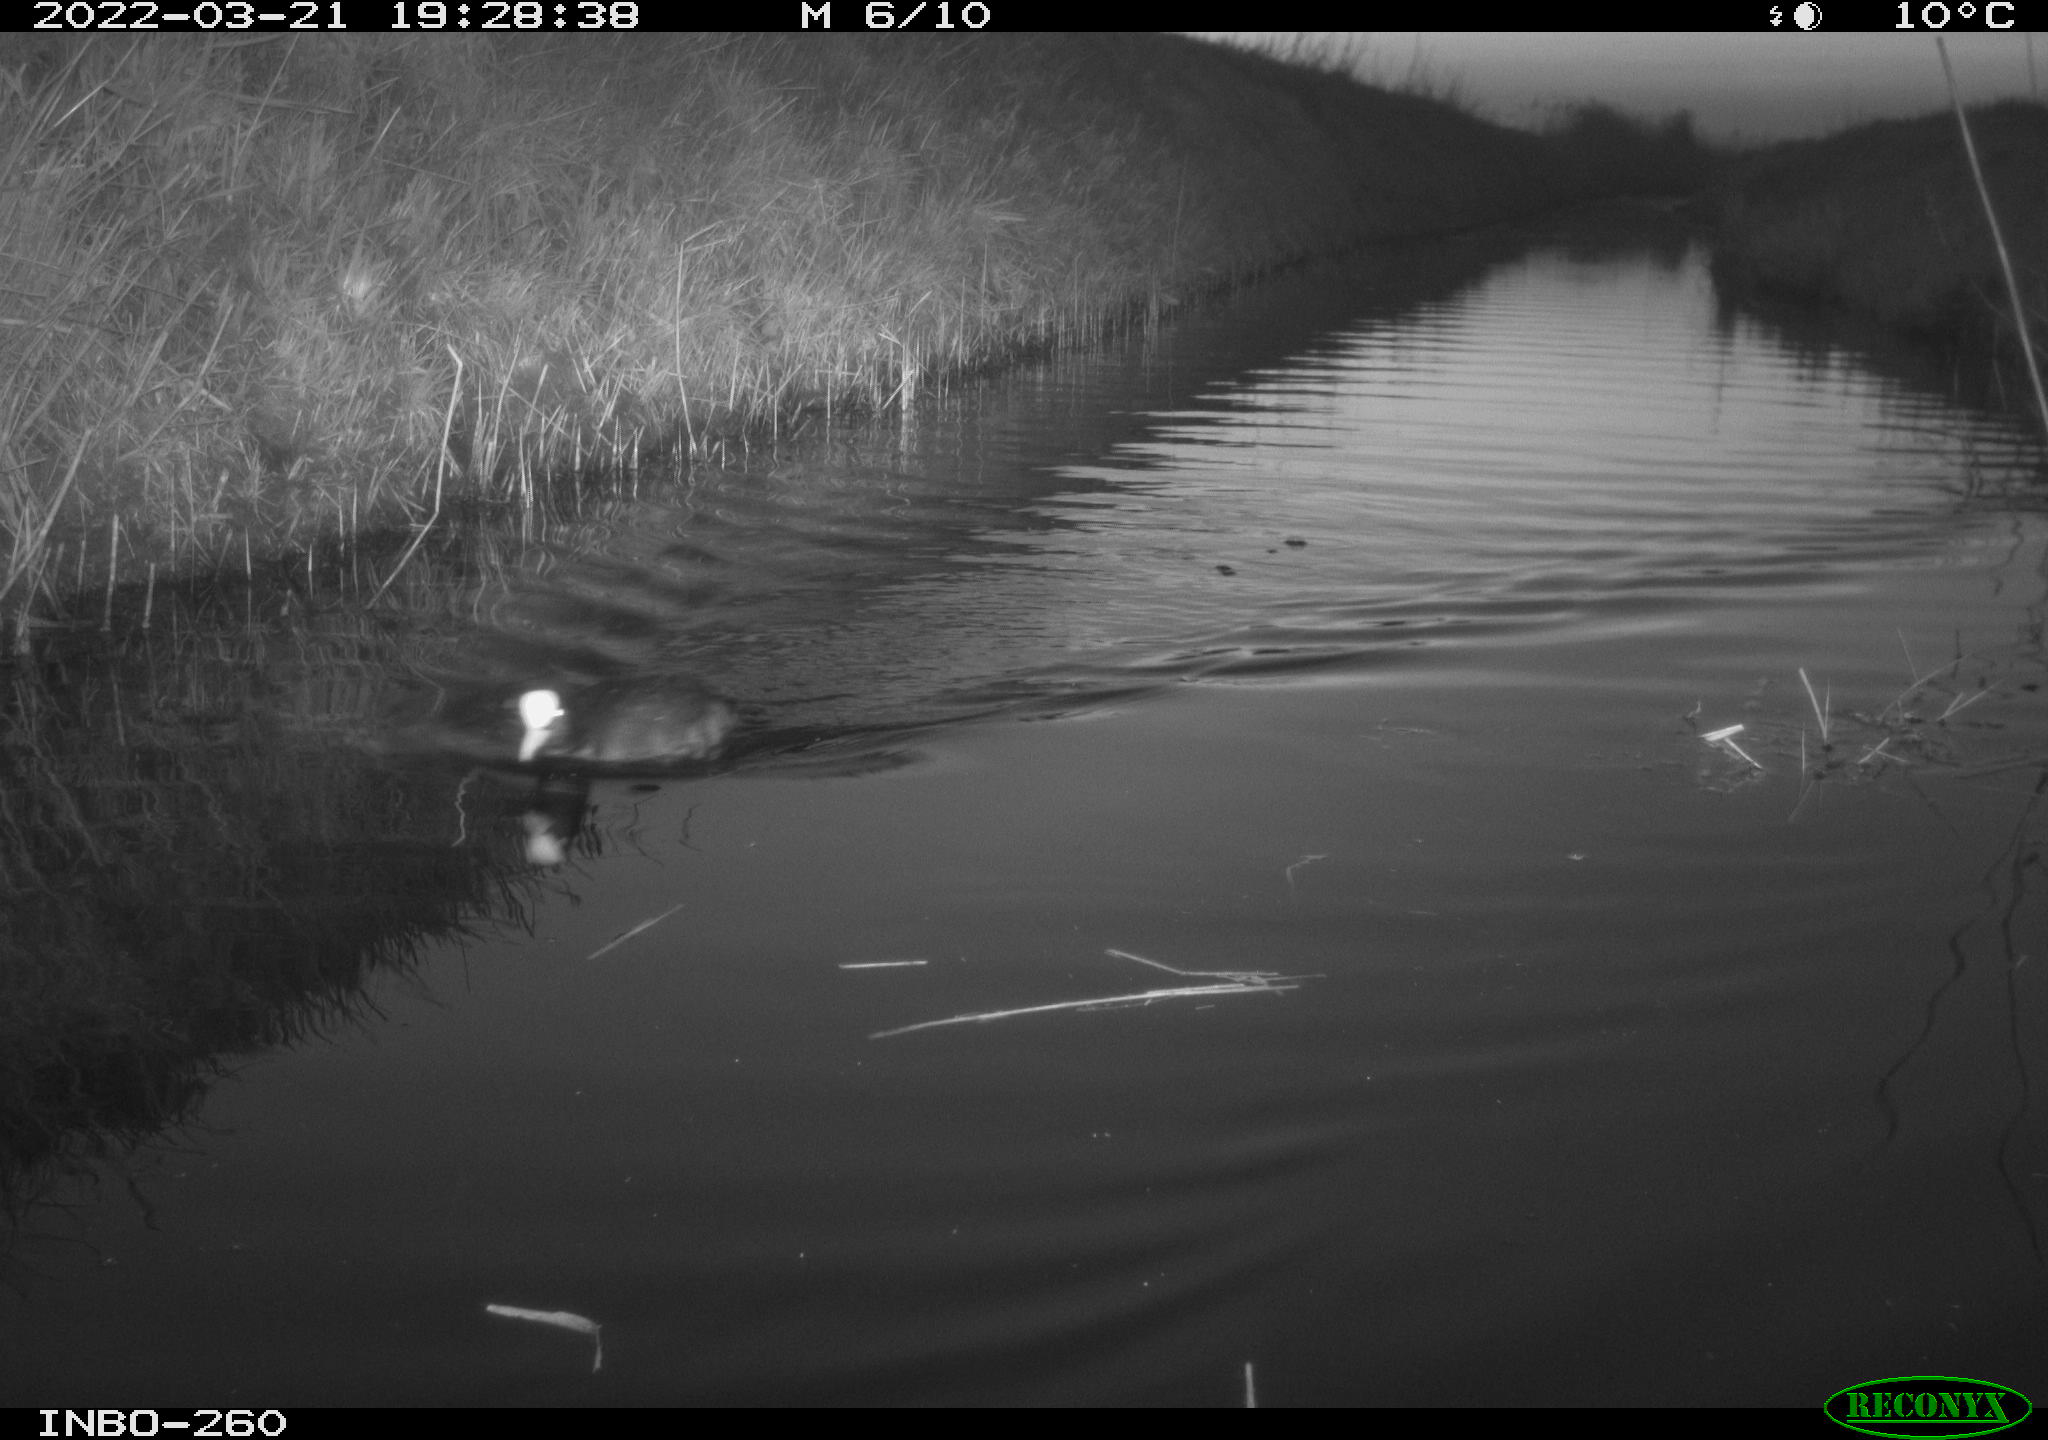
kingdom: Animalia
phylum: Chordata
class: Aves
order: Gruiformes
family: Rallidae
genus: Fulica
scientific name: Fulica atra
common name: Eurasian coot
